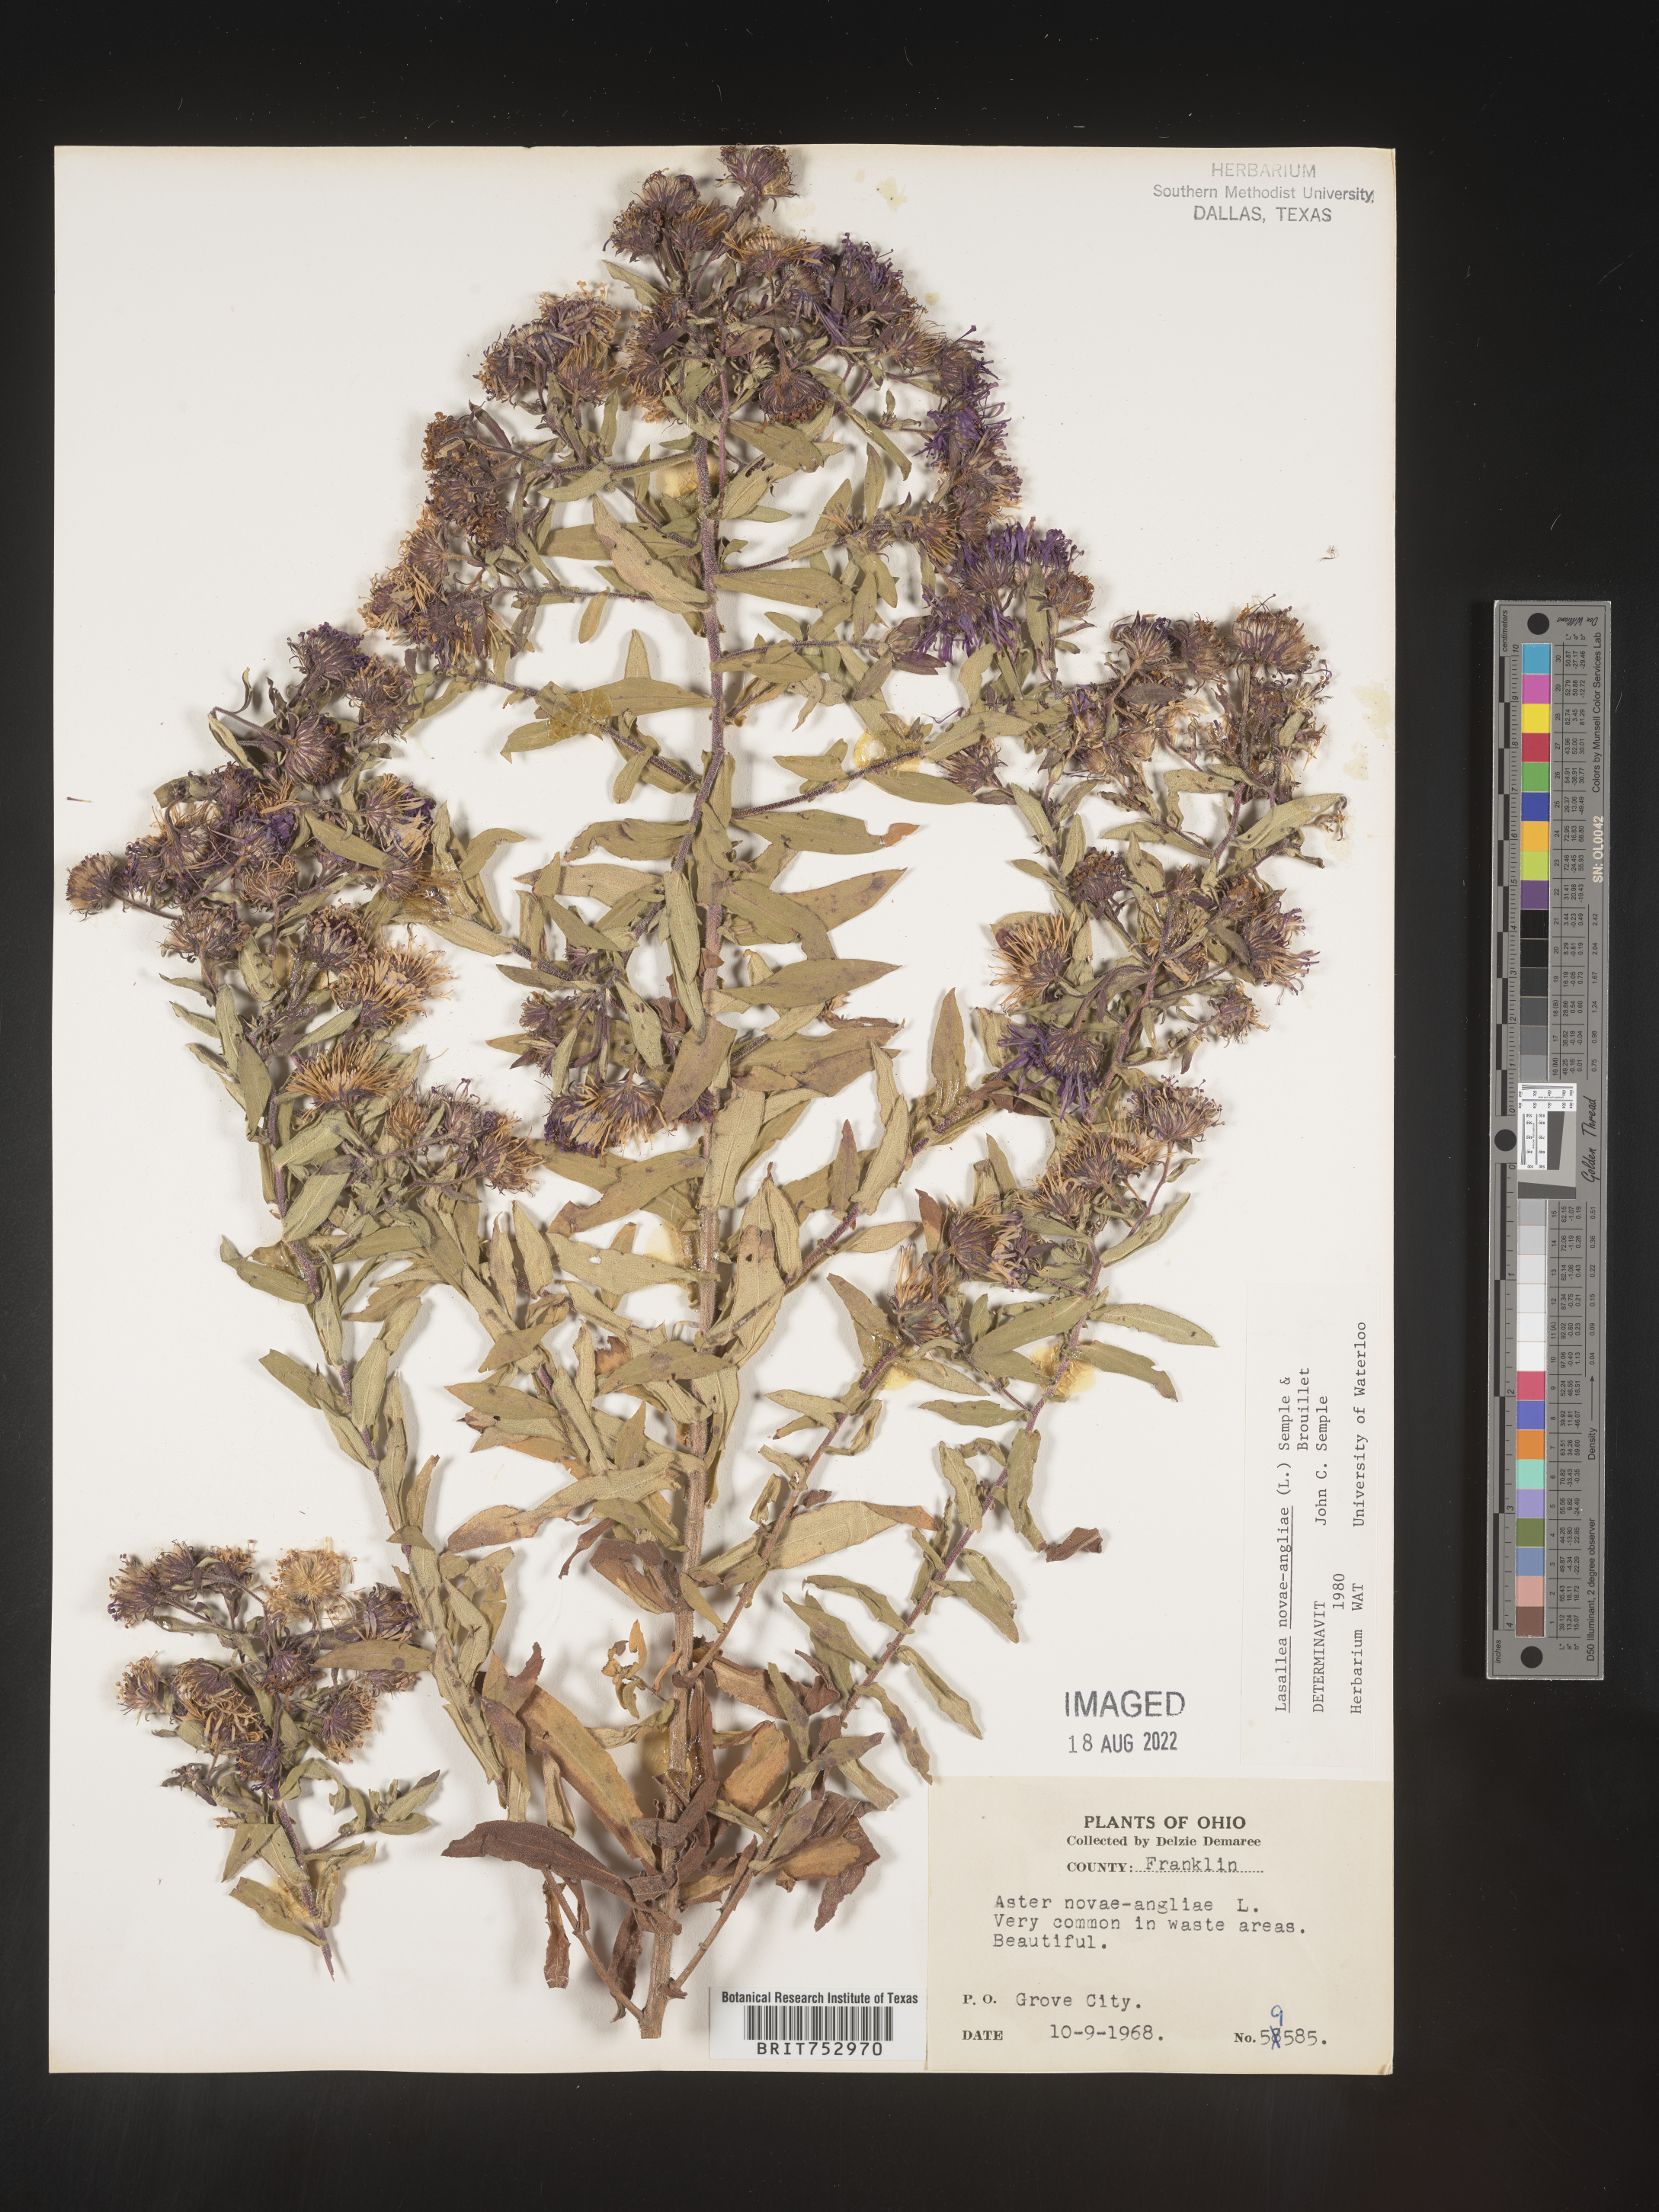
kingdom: Plantae
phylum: Tracheophyta
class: Magnoliopsida
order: Asterales
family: Asteraceae
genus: Symphyotrichum
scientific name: Symphyotrichum novae-angliae
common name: Michaelmas daisy
